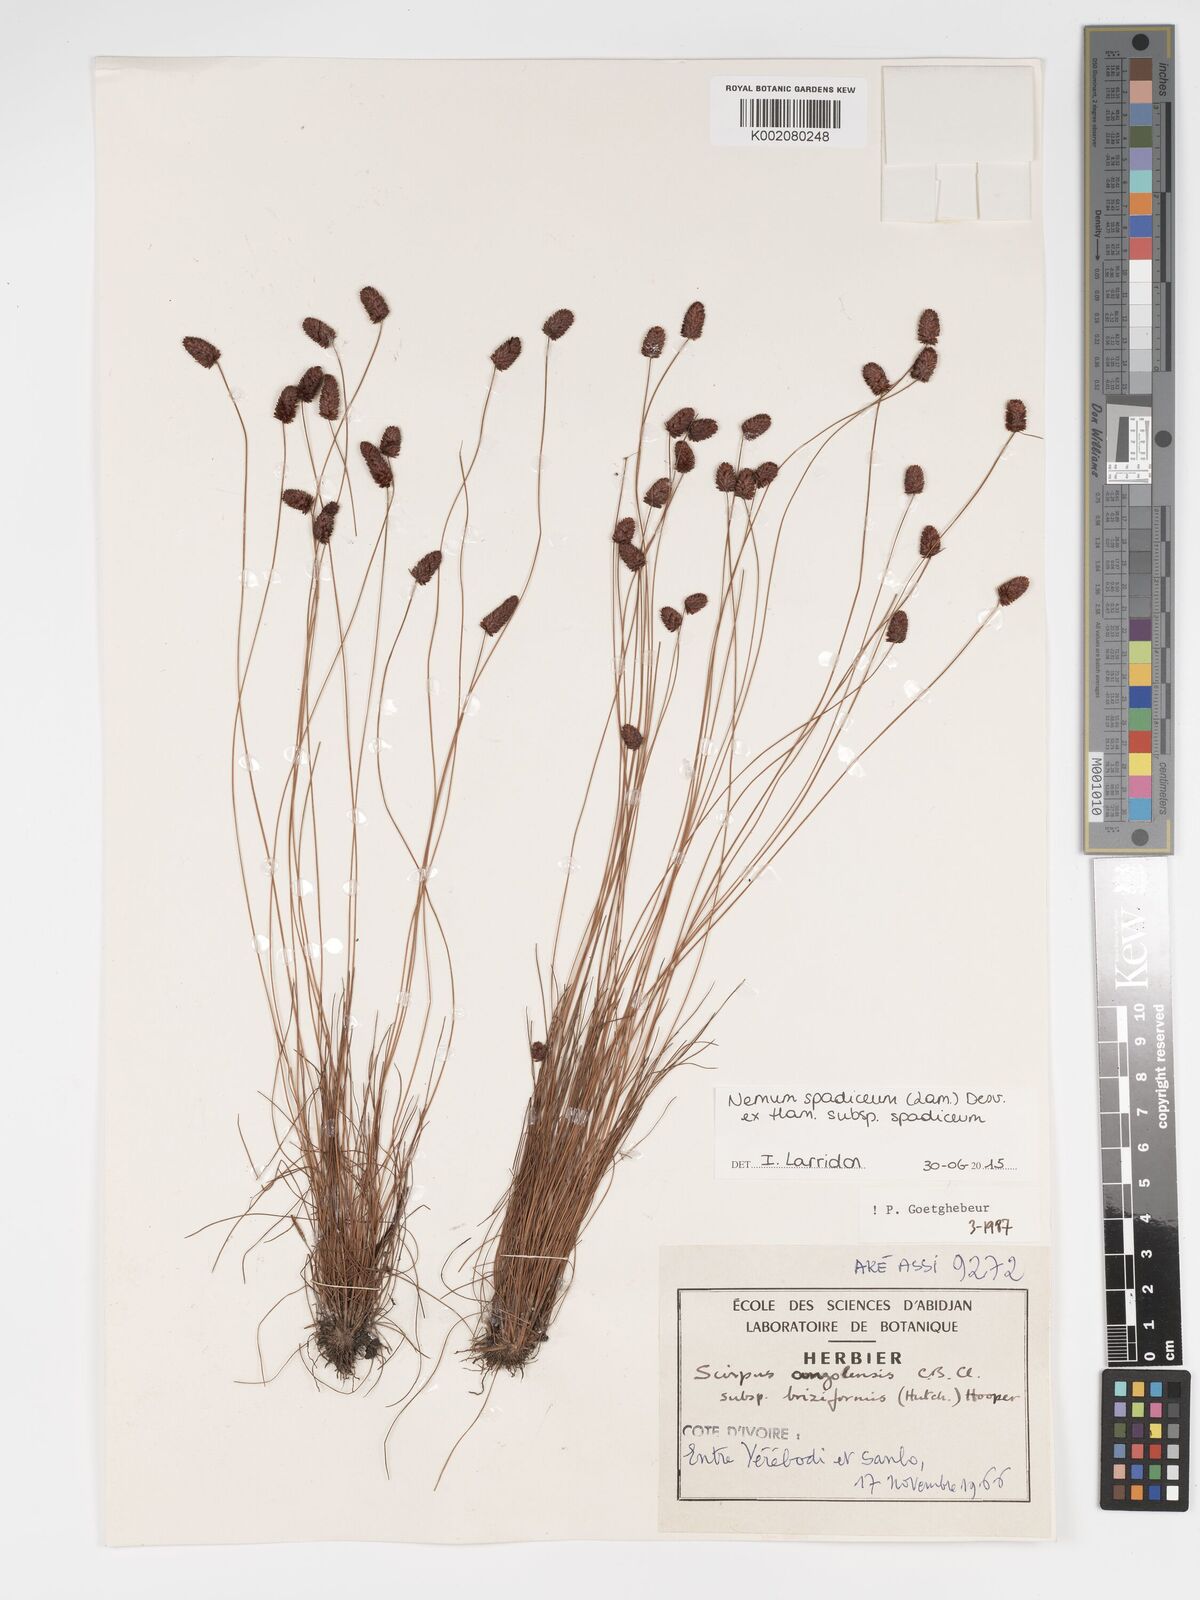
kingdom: Plantae
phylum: Tracheophyta
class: Liliopsida
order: Poales
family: Cyperaceae
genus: Bulbostylis
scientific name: Bulbostylis briziformis
